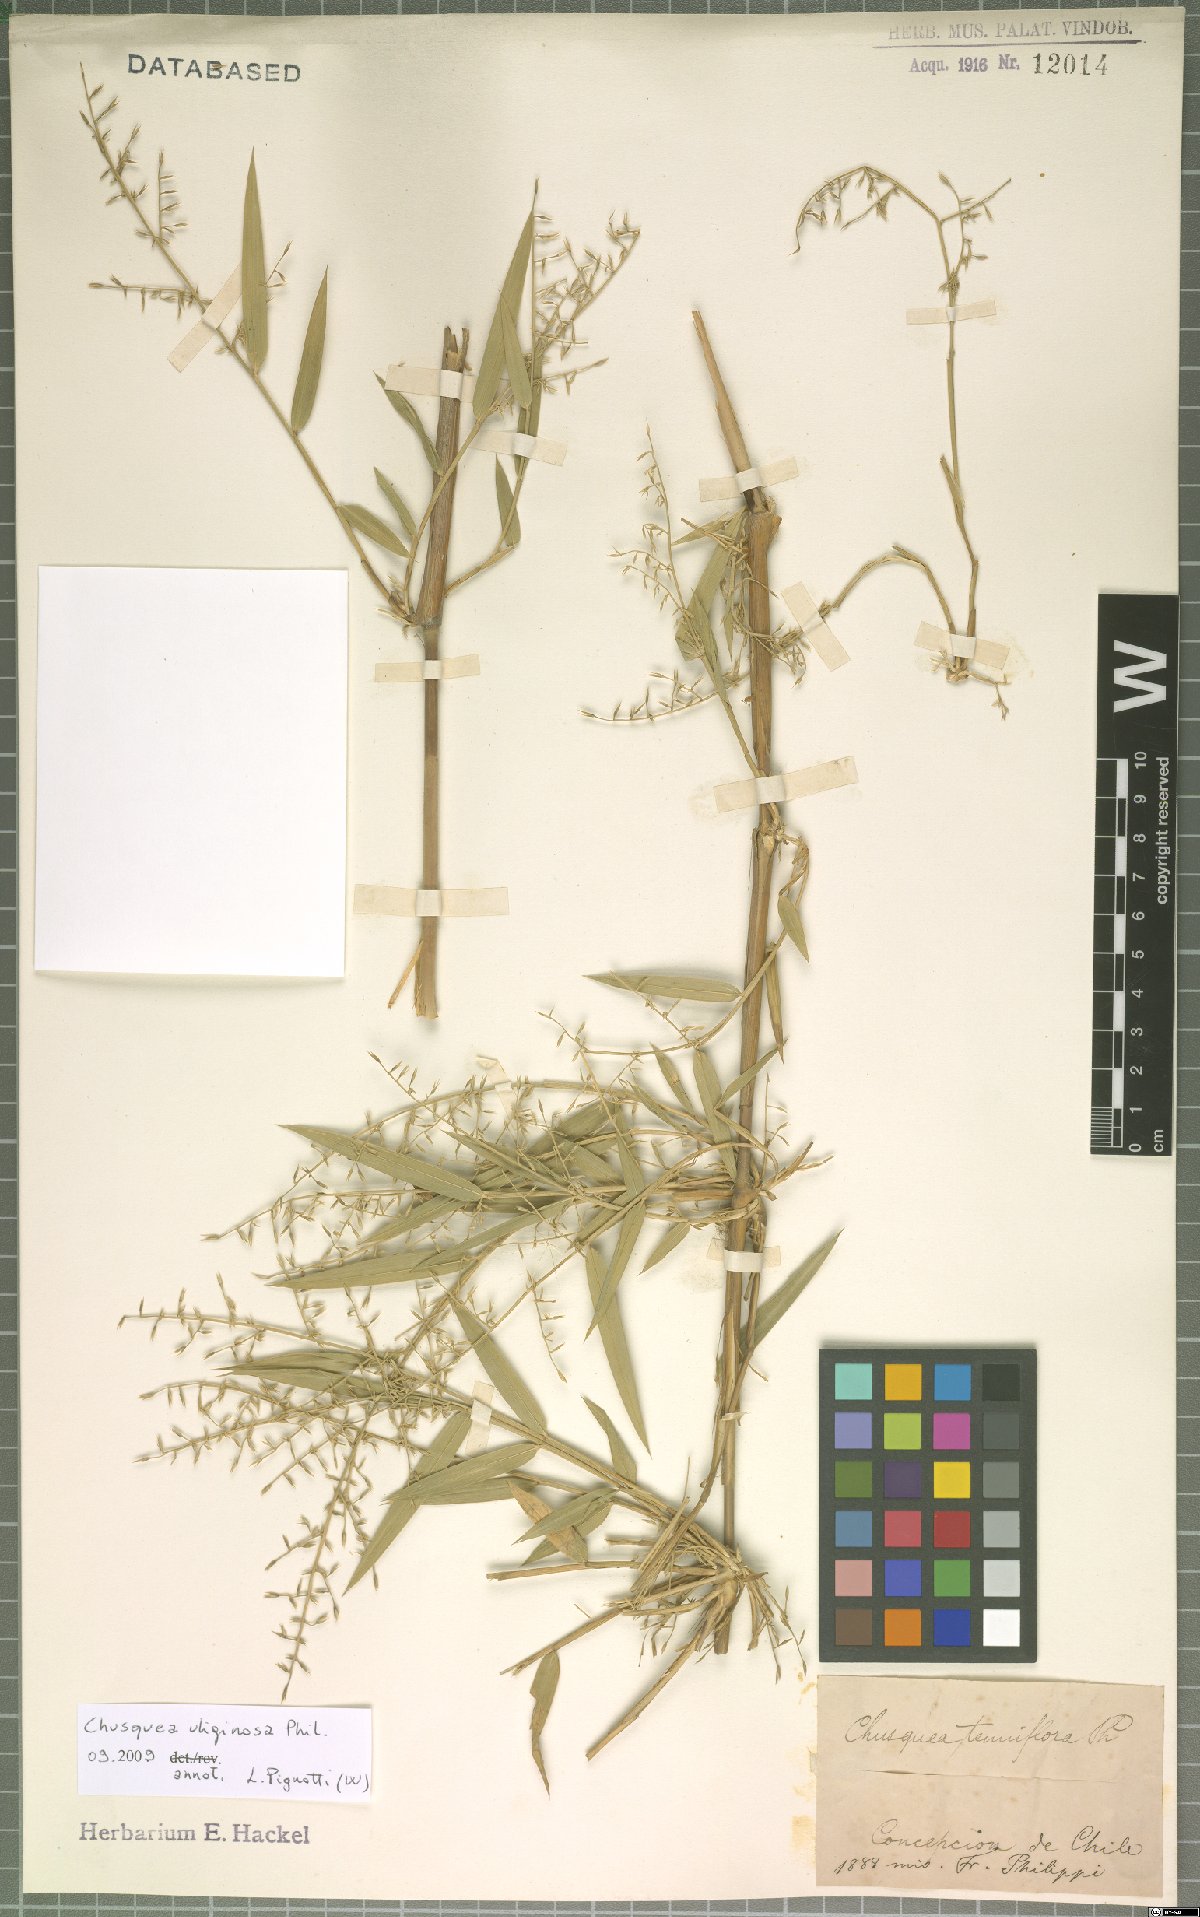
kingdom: Plantae
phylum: Tracheophyta
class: Liliopsida
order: Poales
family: Poaceae
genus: Chusquea
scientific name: Chusquea uliginosa
